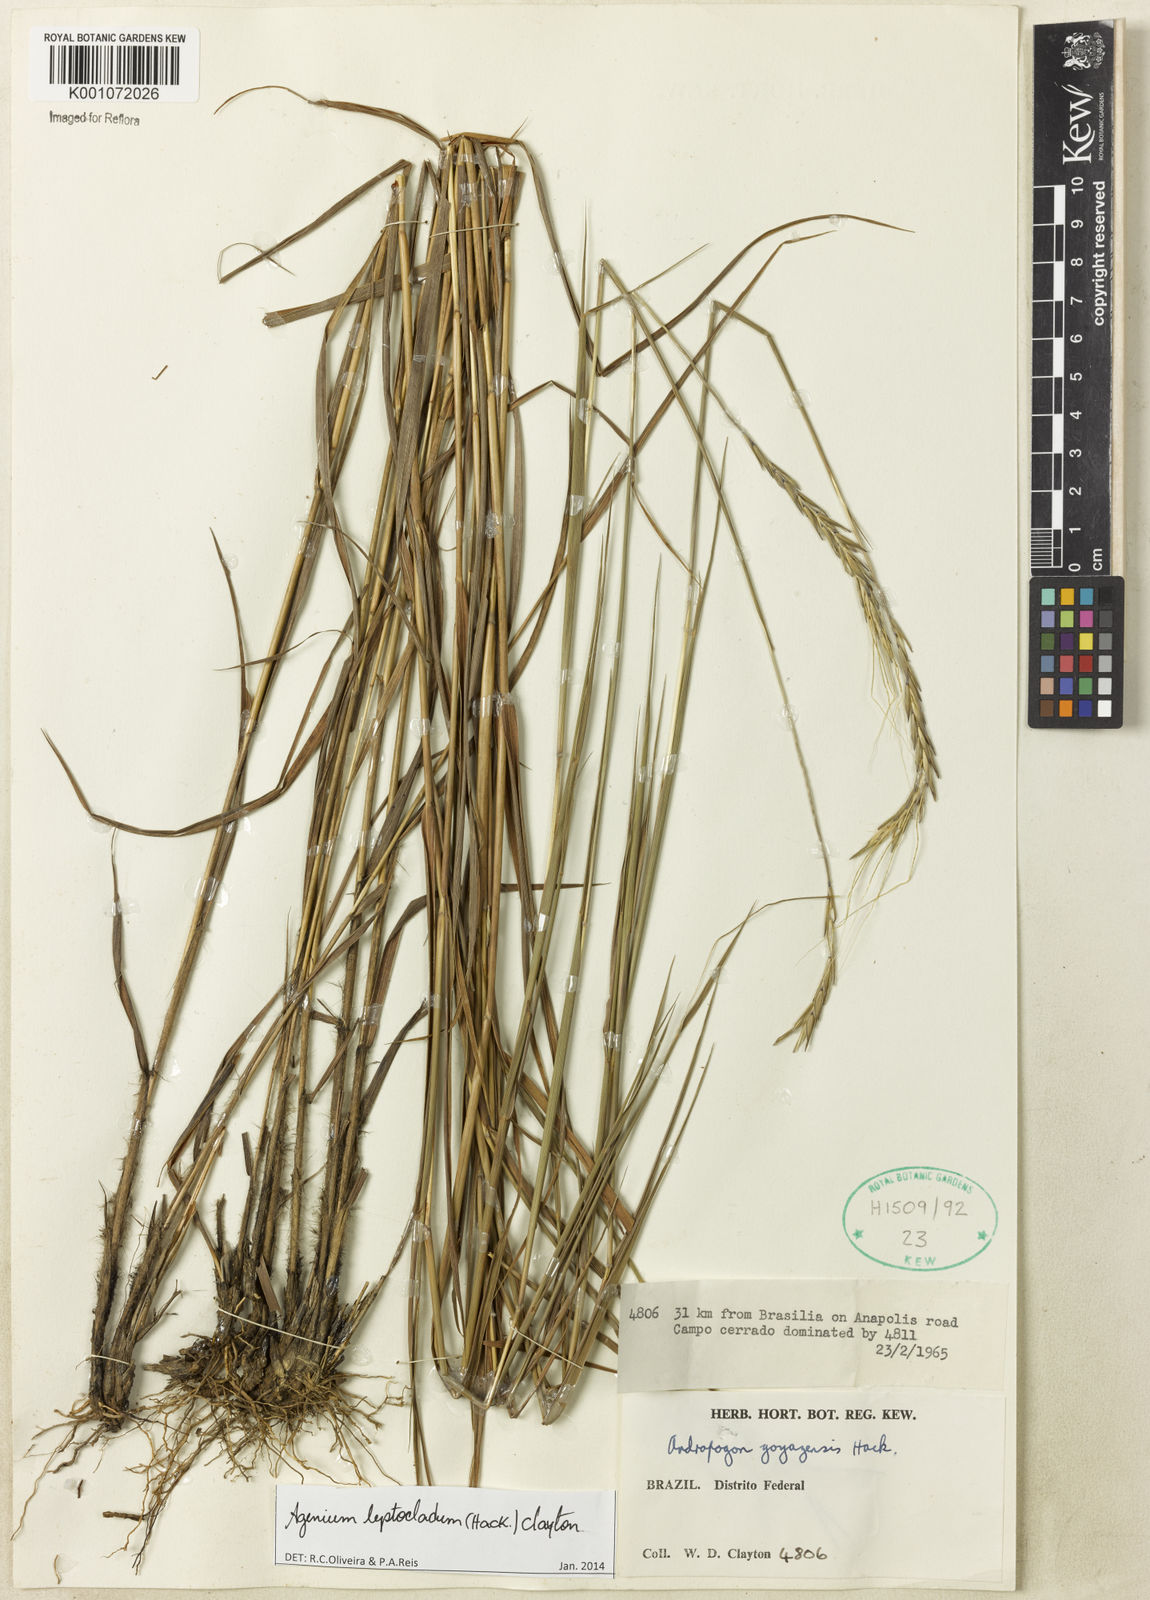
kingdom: Plantae
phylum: Tracheophyta
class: Liliopsida
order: Poales
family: Poaceae
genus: Agenium
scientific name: Agenium leptocladum
